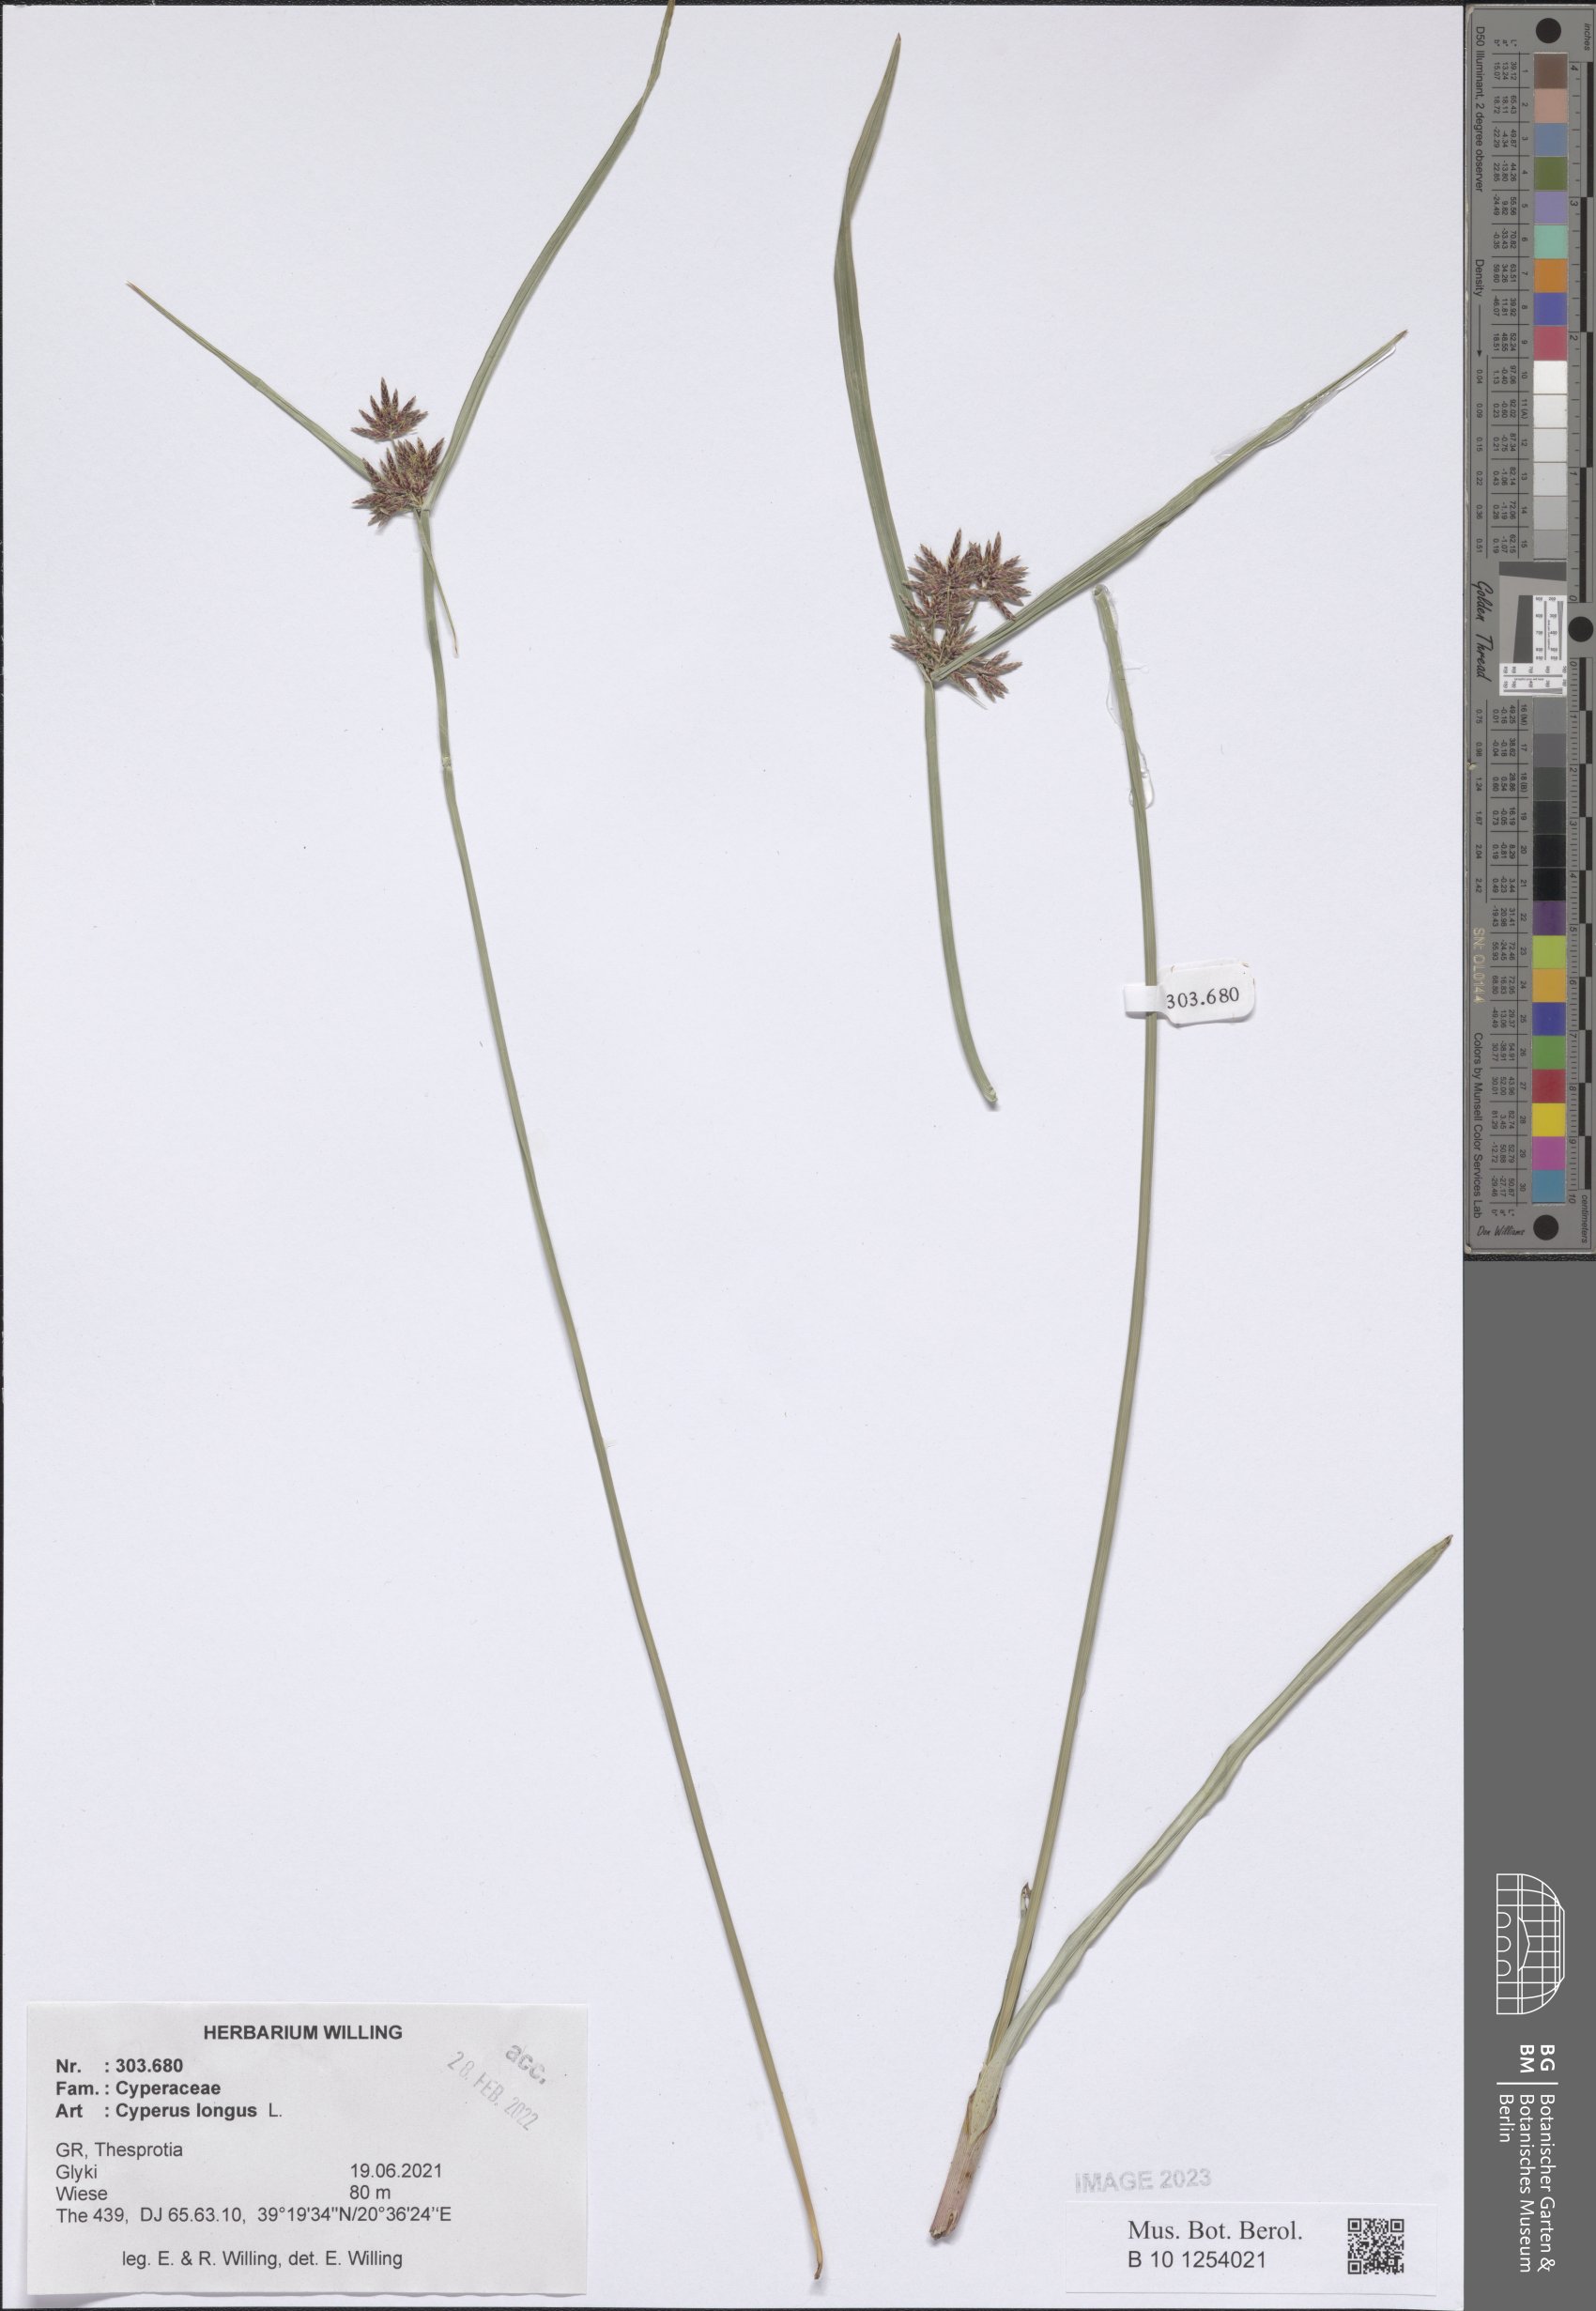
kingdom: Plantae
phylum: Tracheophyta
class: Liliopsida
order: Poales
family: Cyperaceae
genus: Cyperus
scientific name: Cyperus longus
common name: Galingale
